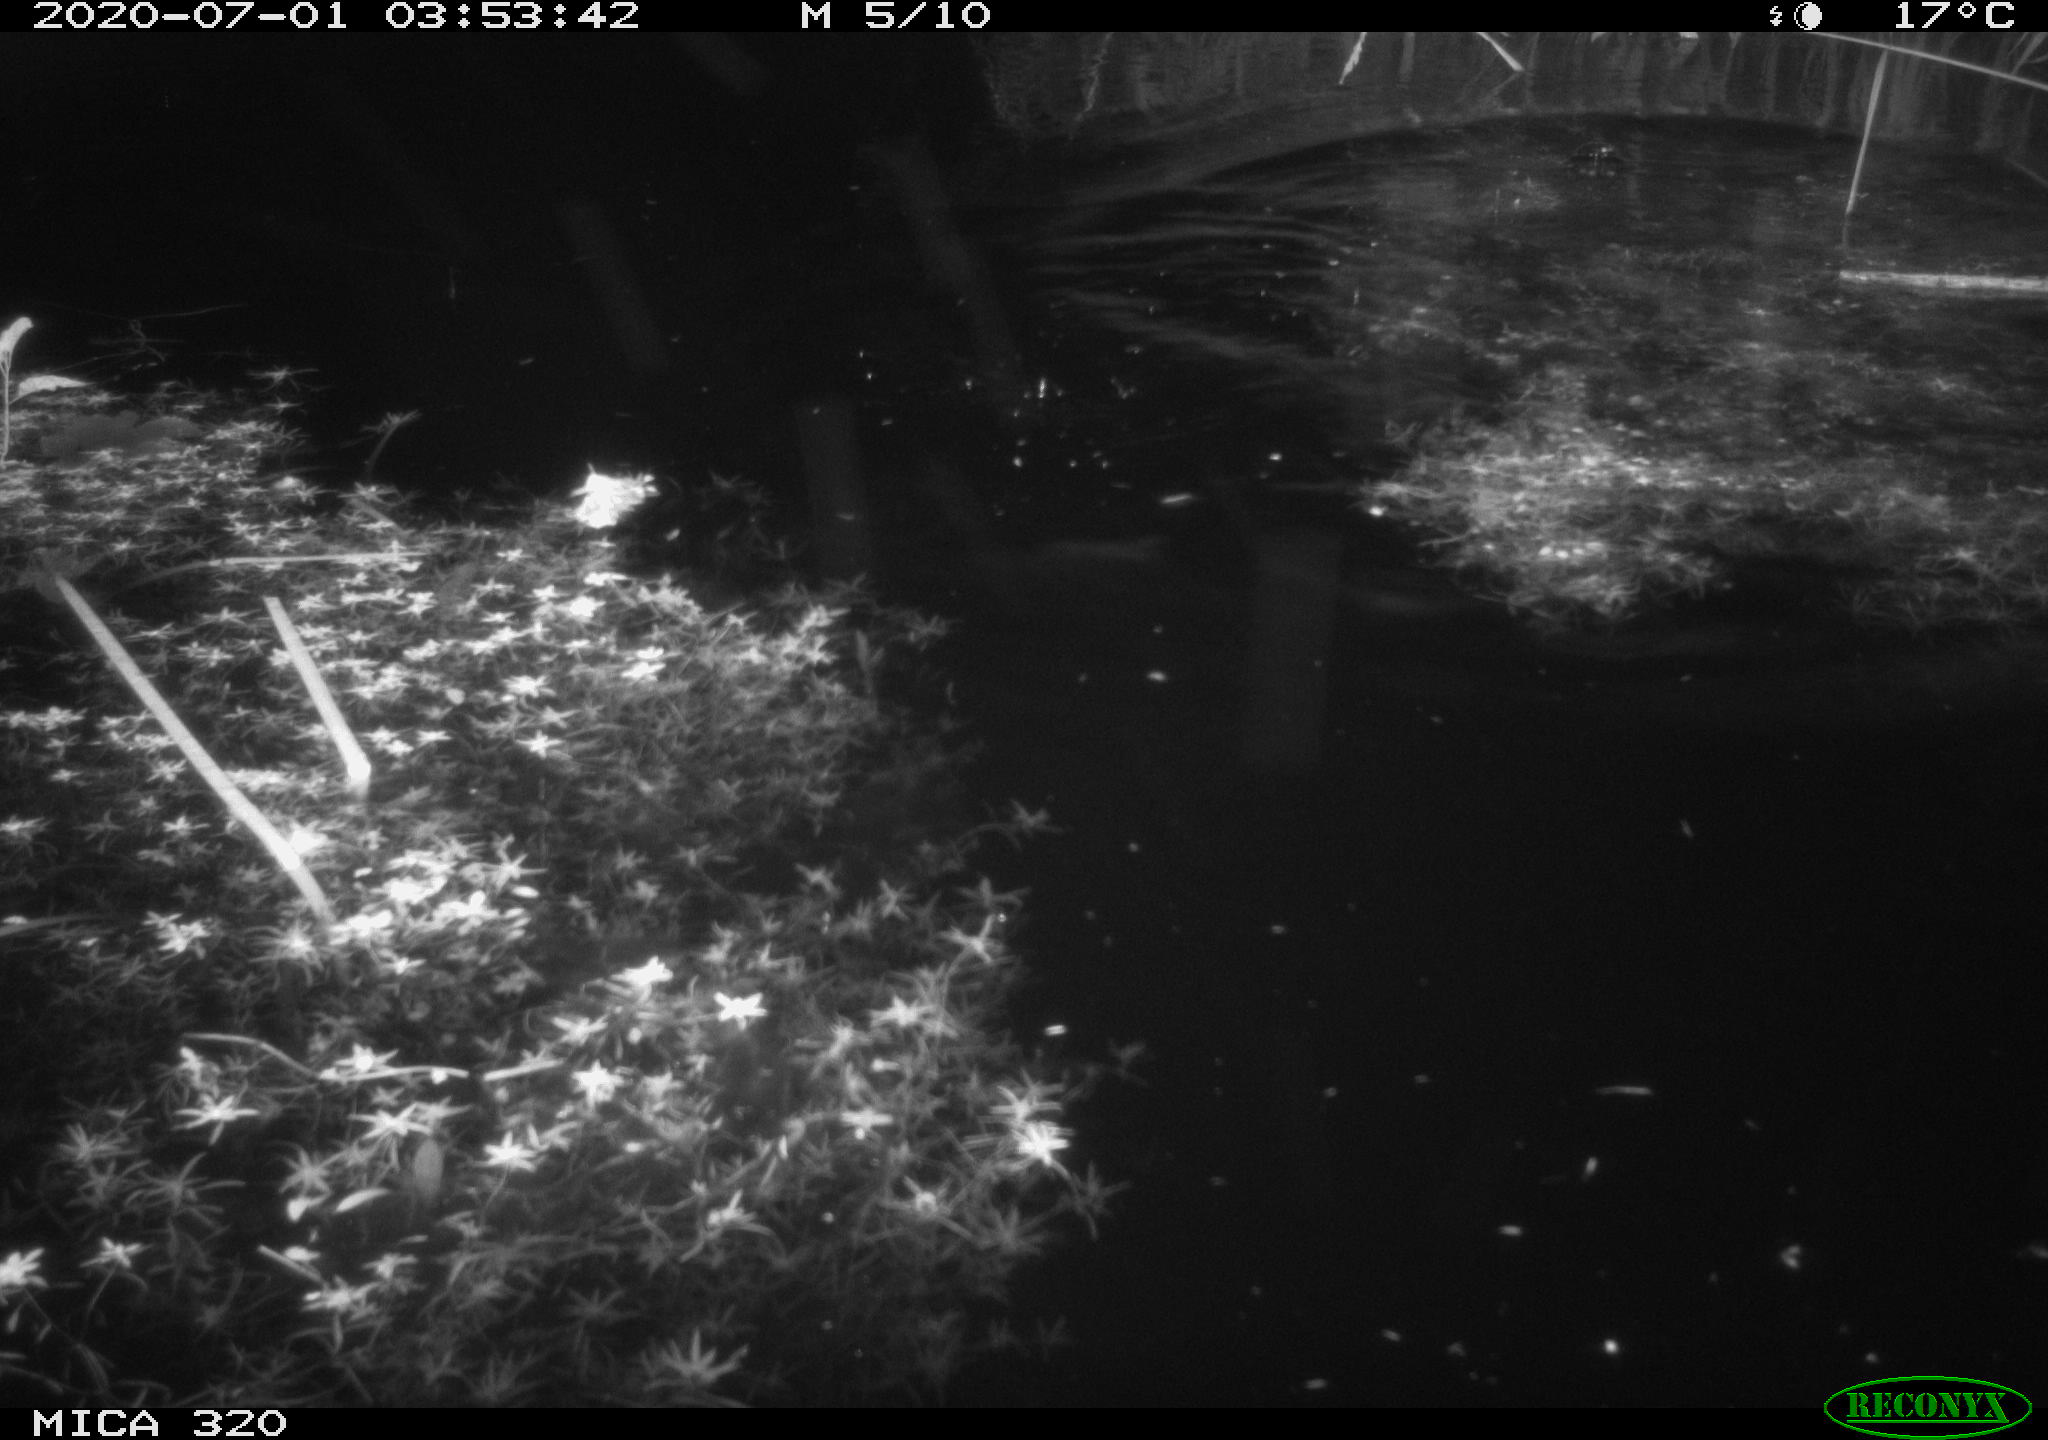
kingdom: Animalia
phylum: Chordata
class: Mammalia
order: Rodentia
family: Muridae
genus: Rattus
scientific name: Rattus norvegicus
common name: Brown rat
